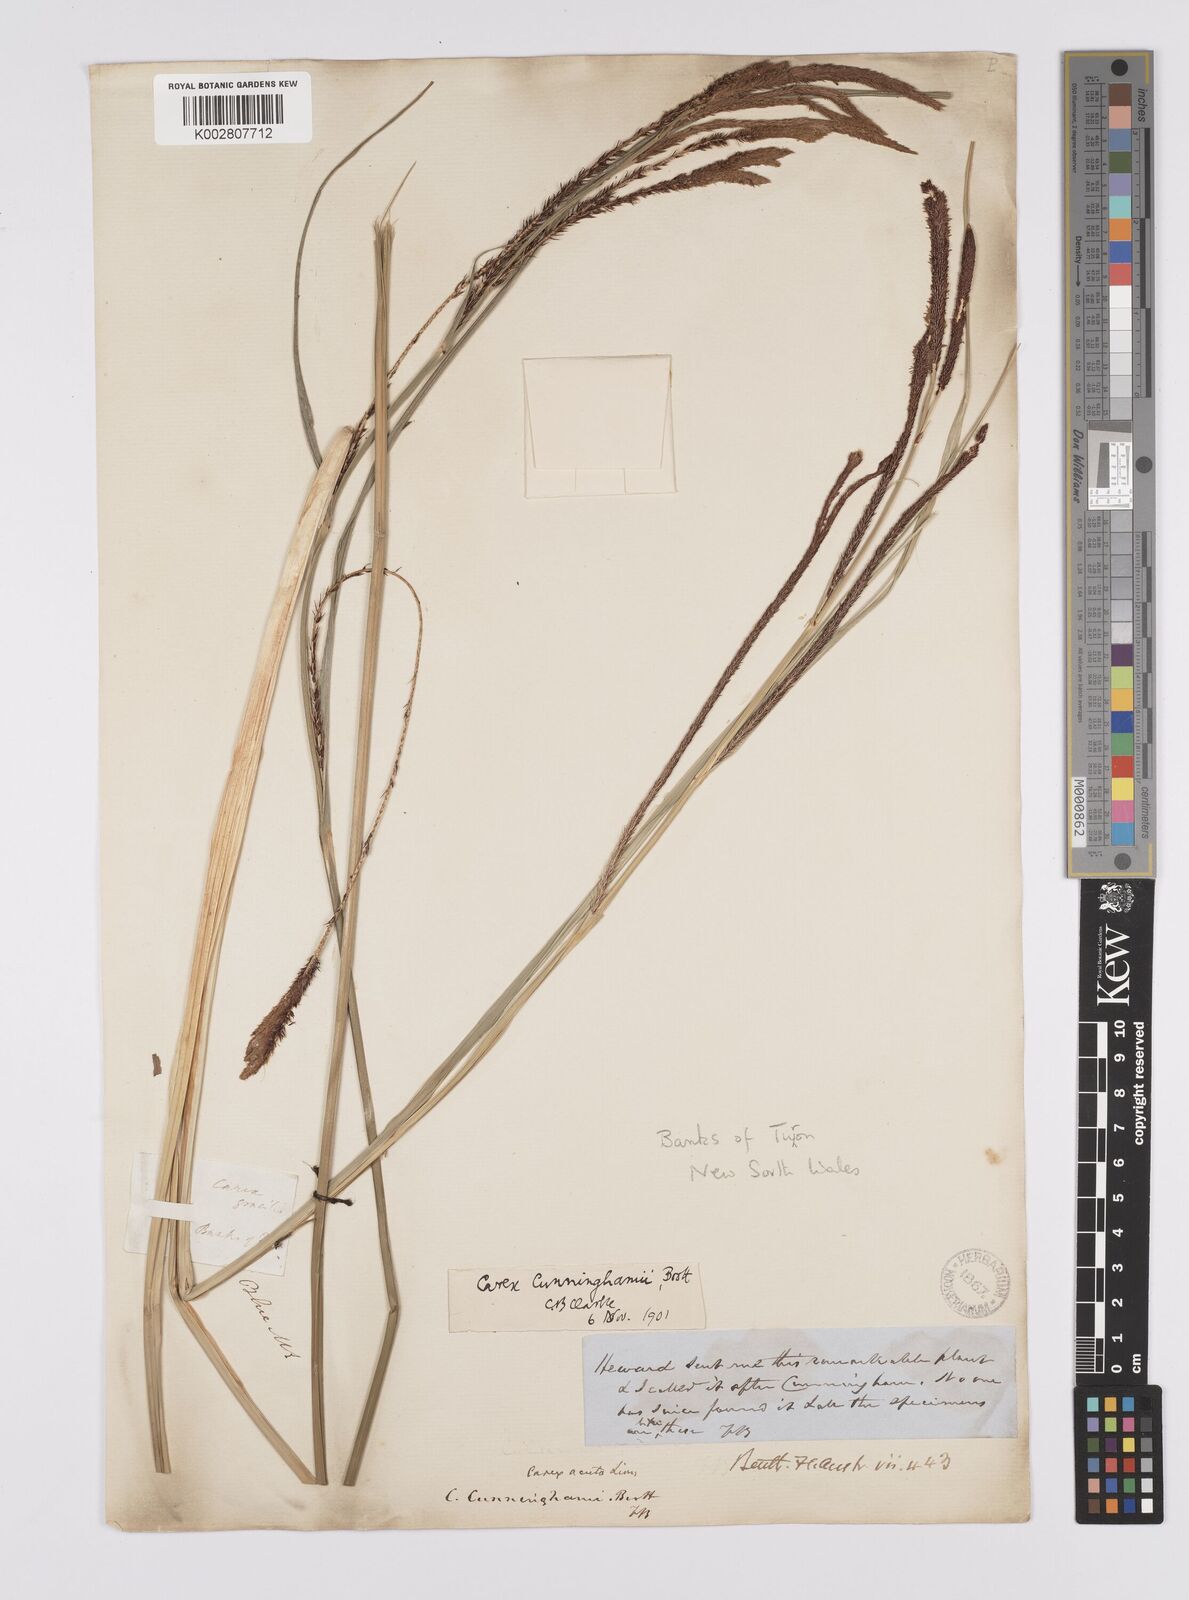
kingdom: Plantae
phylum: Tracheophyta
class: Liliopsida
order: Poales
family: Cyperaceae
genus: Carex
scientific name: Carex polyantha
